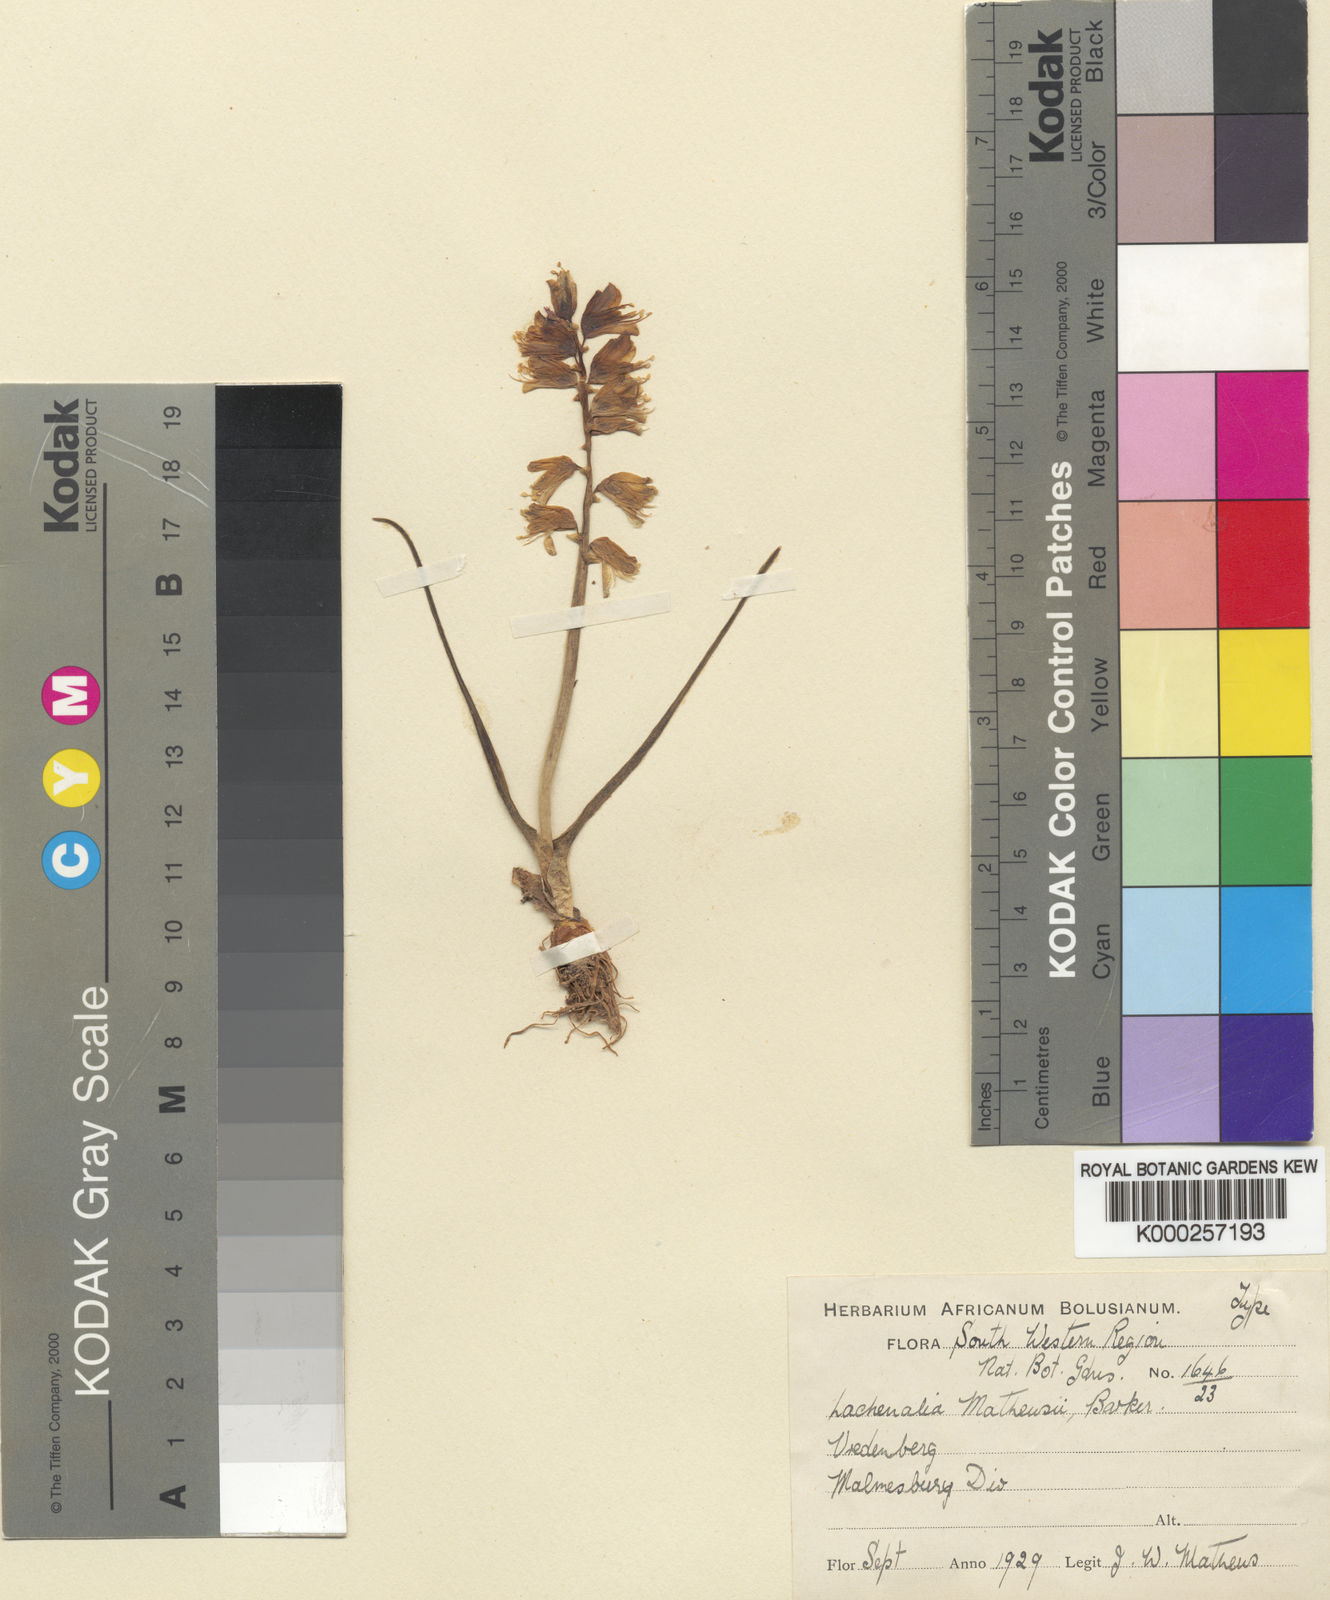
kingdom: Plantae
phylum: Tracheophyta
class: Liliopsida
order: Asparagales
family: Asparagaceae
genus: Lachenalia
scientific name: Lachenalia mathewsii
